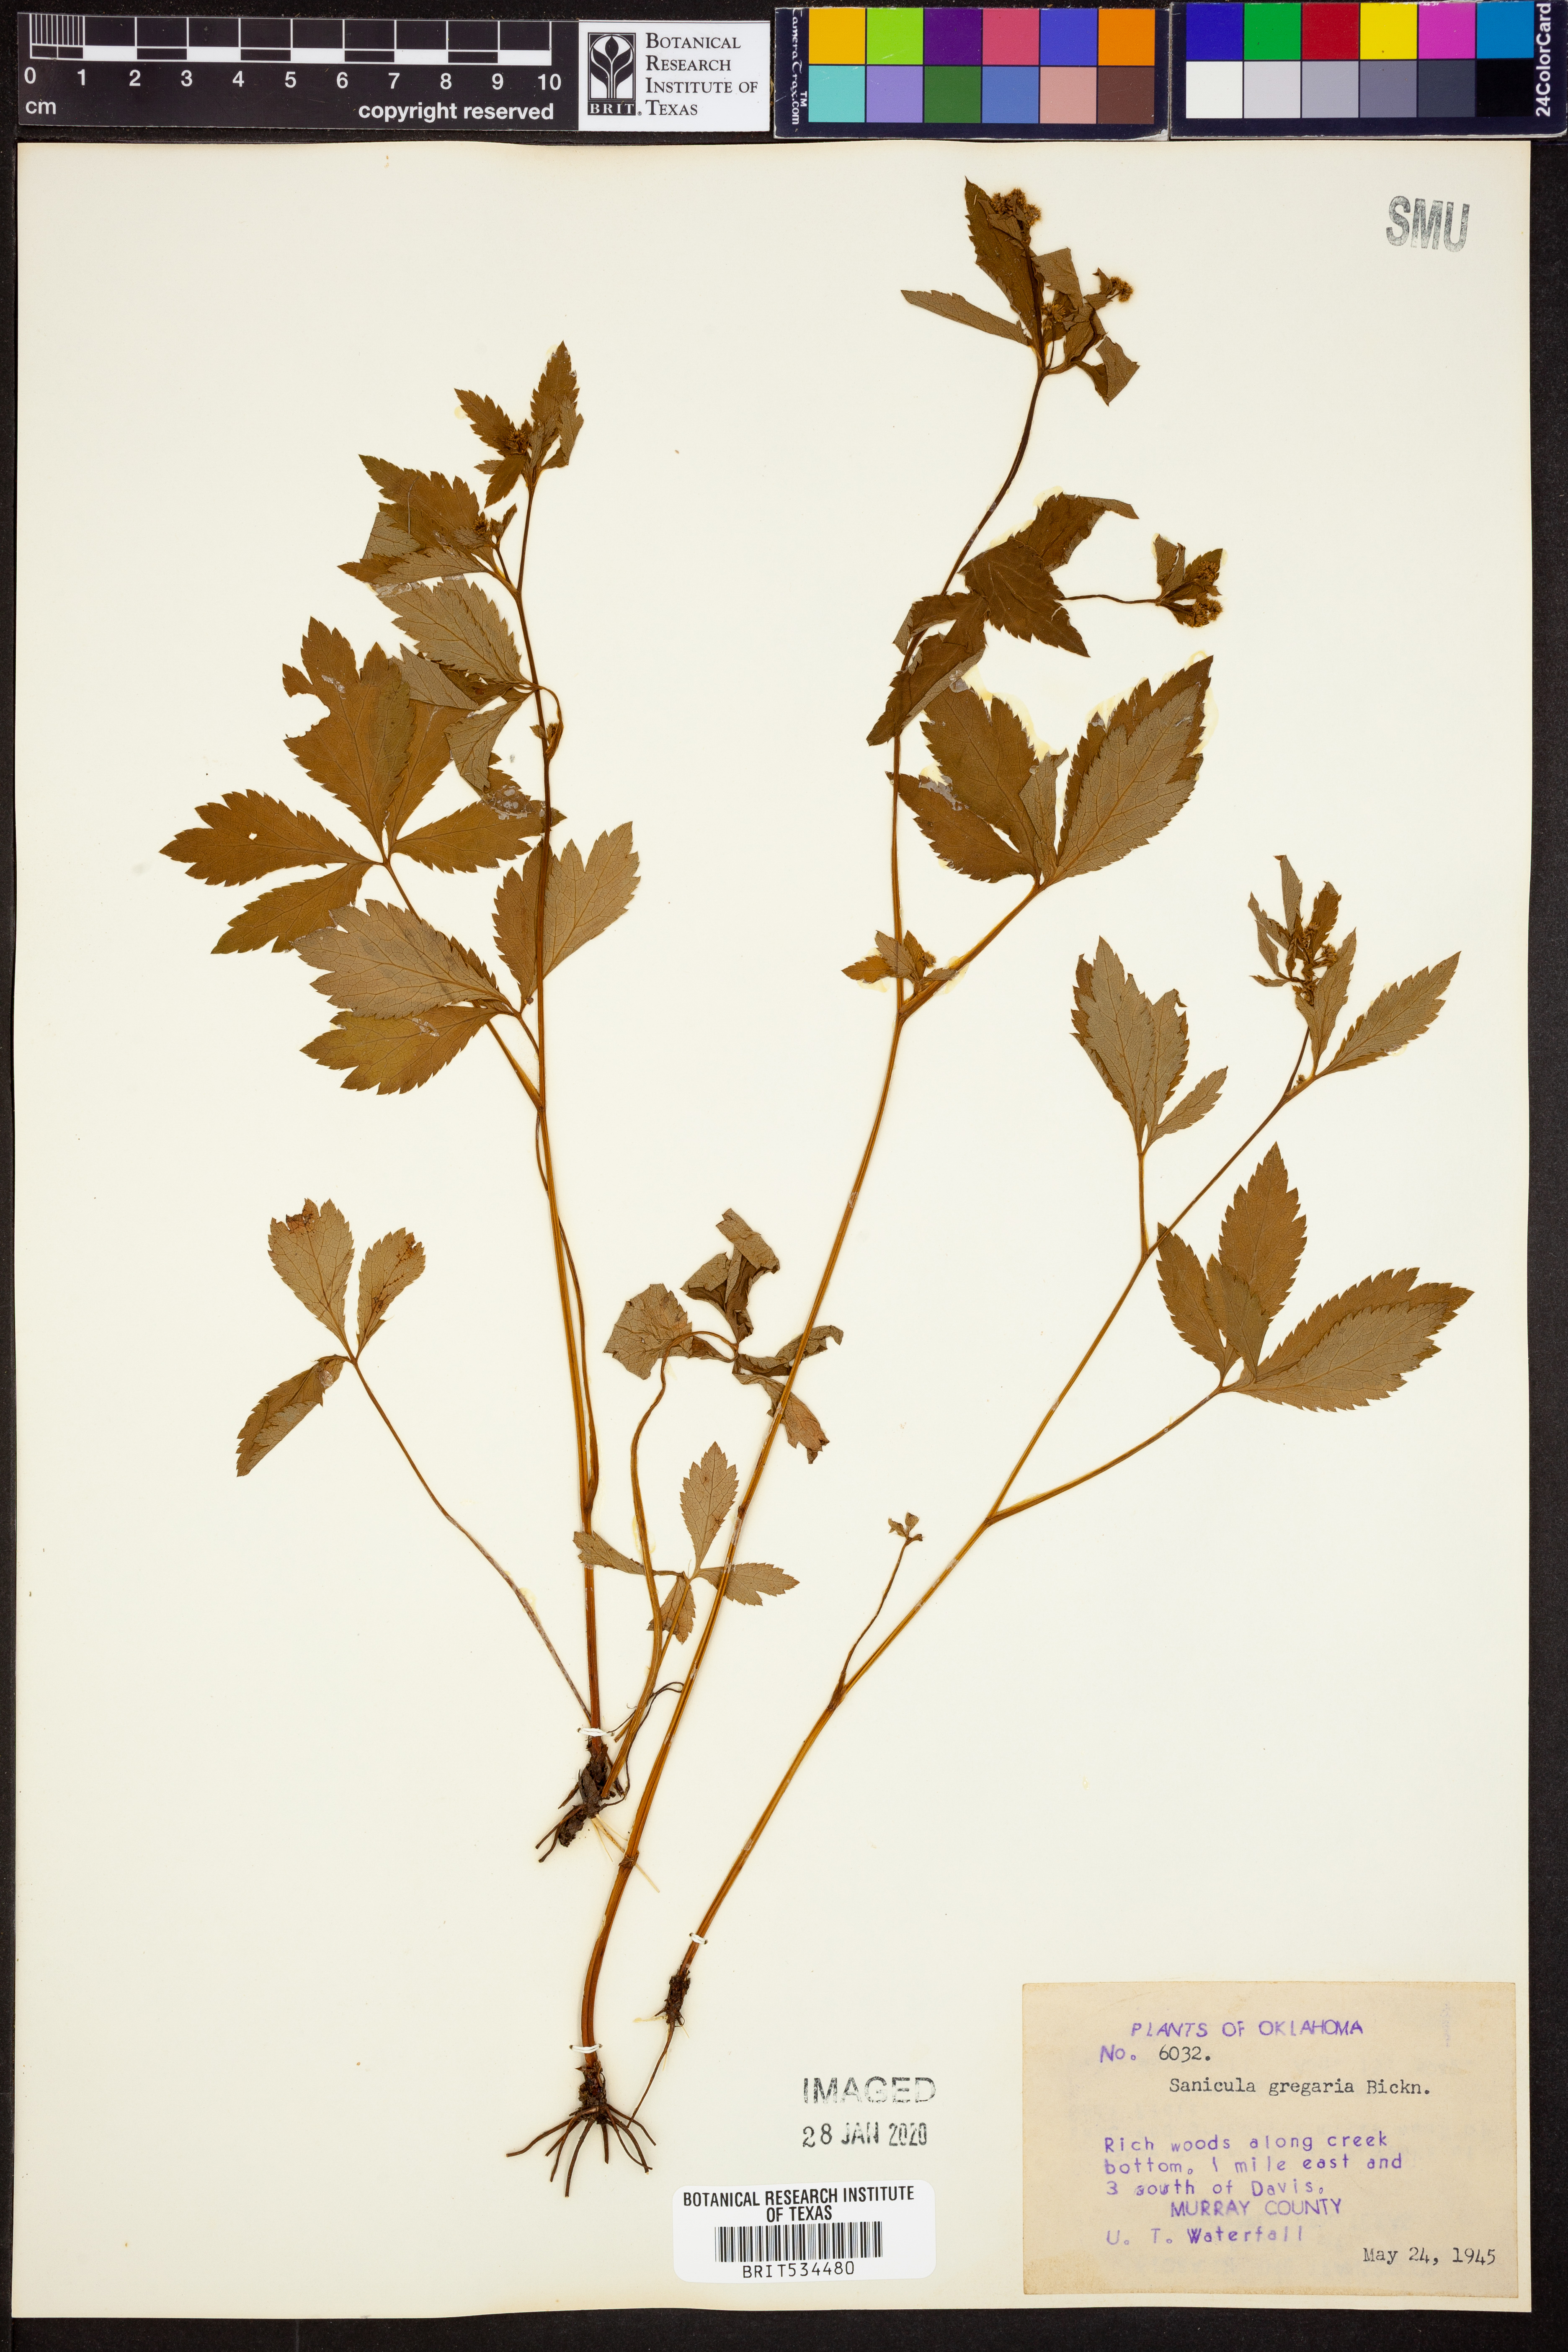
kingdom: Plantae
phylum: Tracheophyta
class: Magnoliopsida
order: Apiales
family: Apiaceae
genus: Sanicula
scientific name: Sanicula odorata
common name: Cluster sanicle
